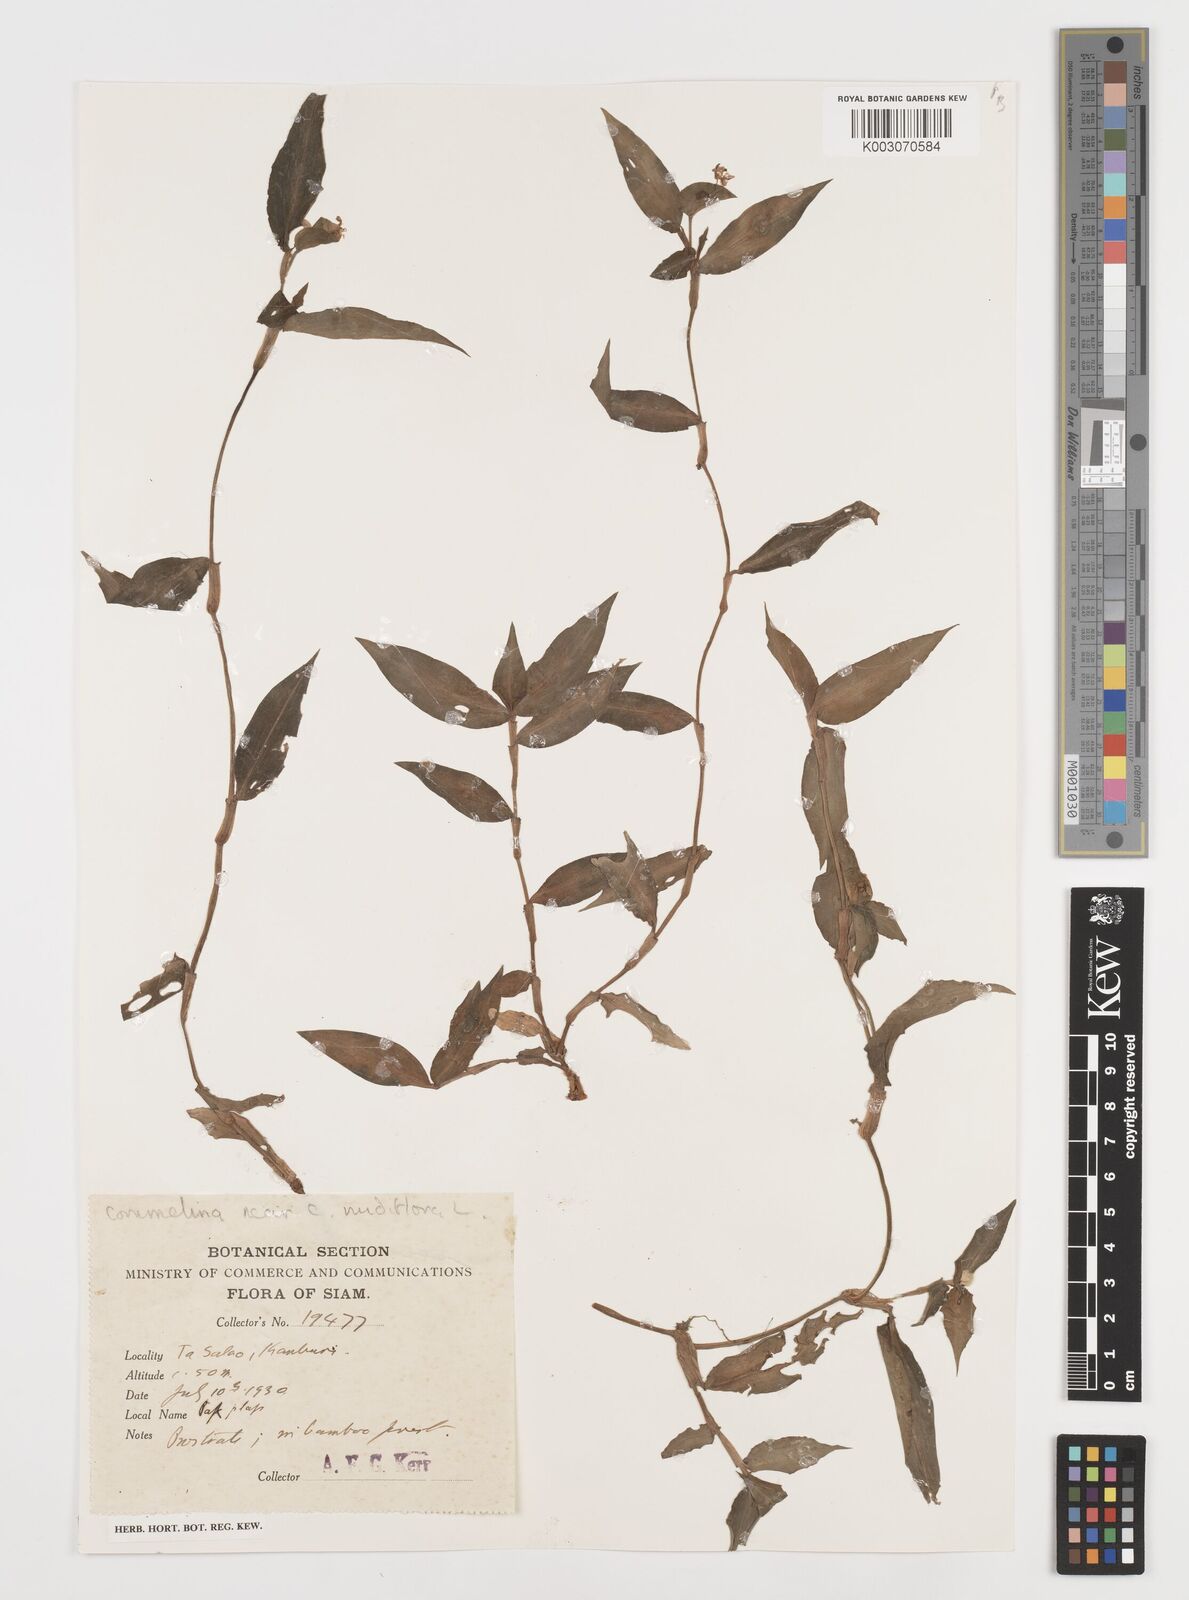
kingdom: Plantae
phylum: Tracheophyta
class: Liliopsida
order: Commelinales
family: Commelinaceae
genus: Commelina
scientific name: Commelina clavata
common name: Willow leaved dayflower
